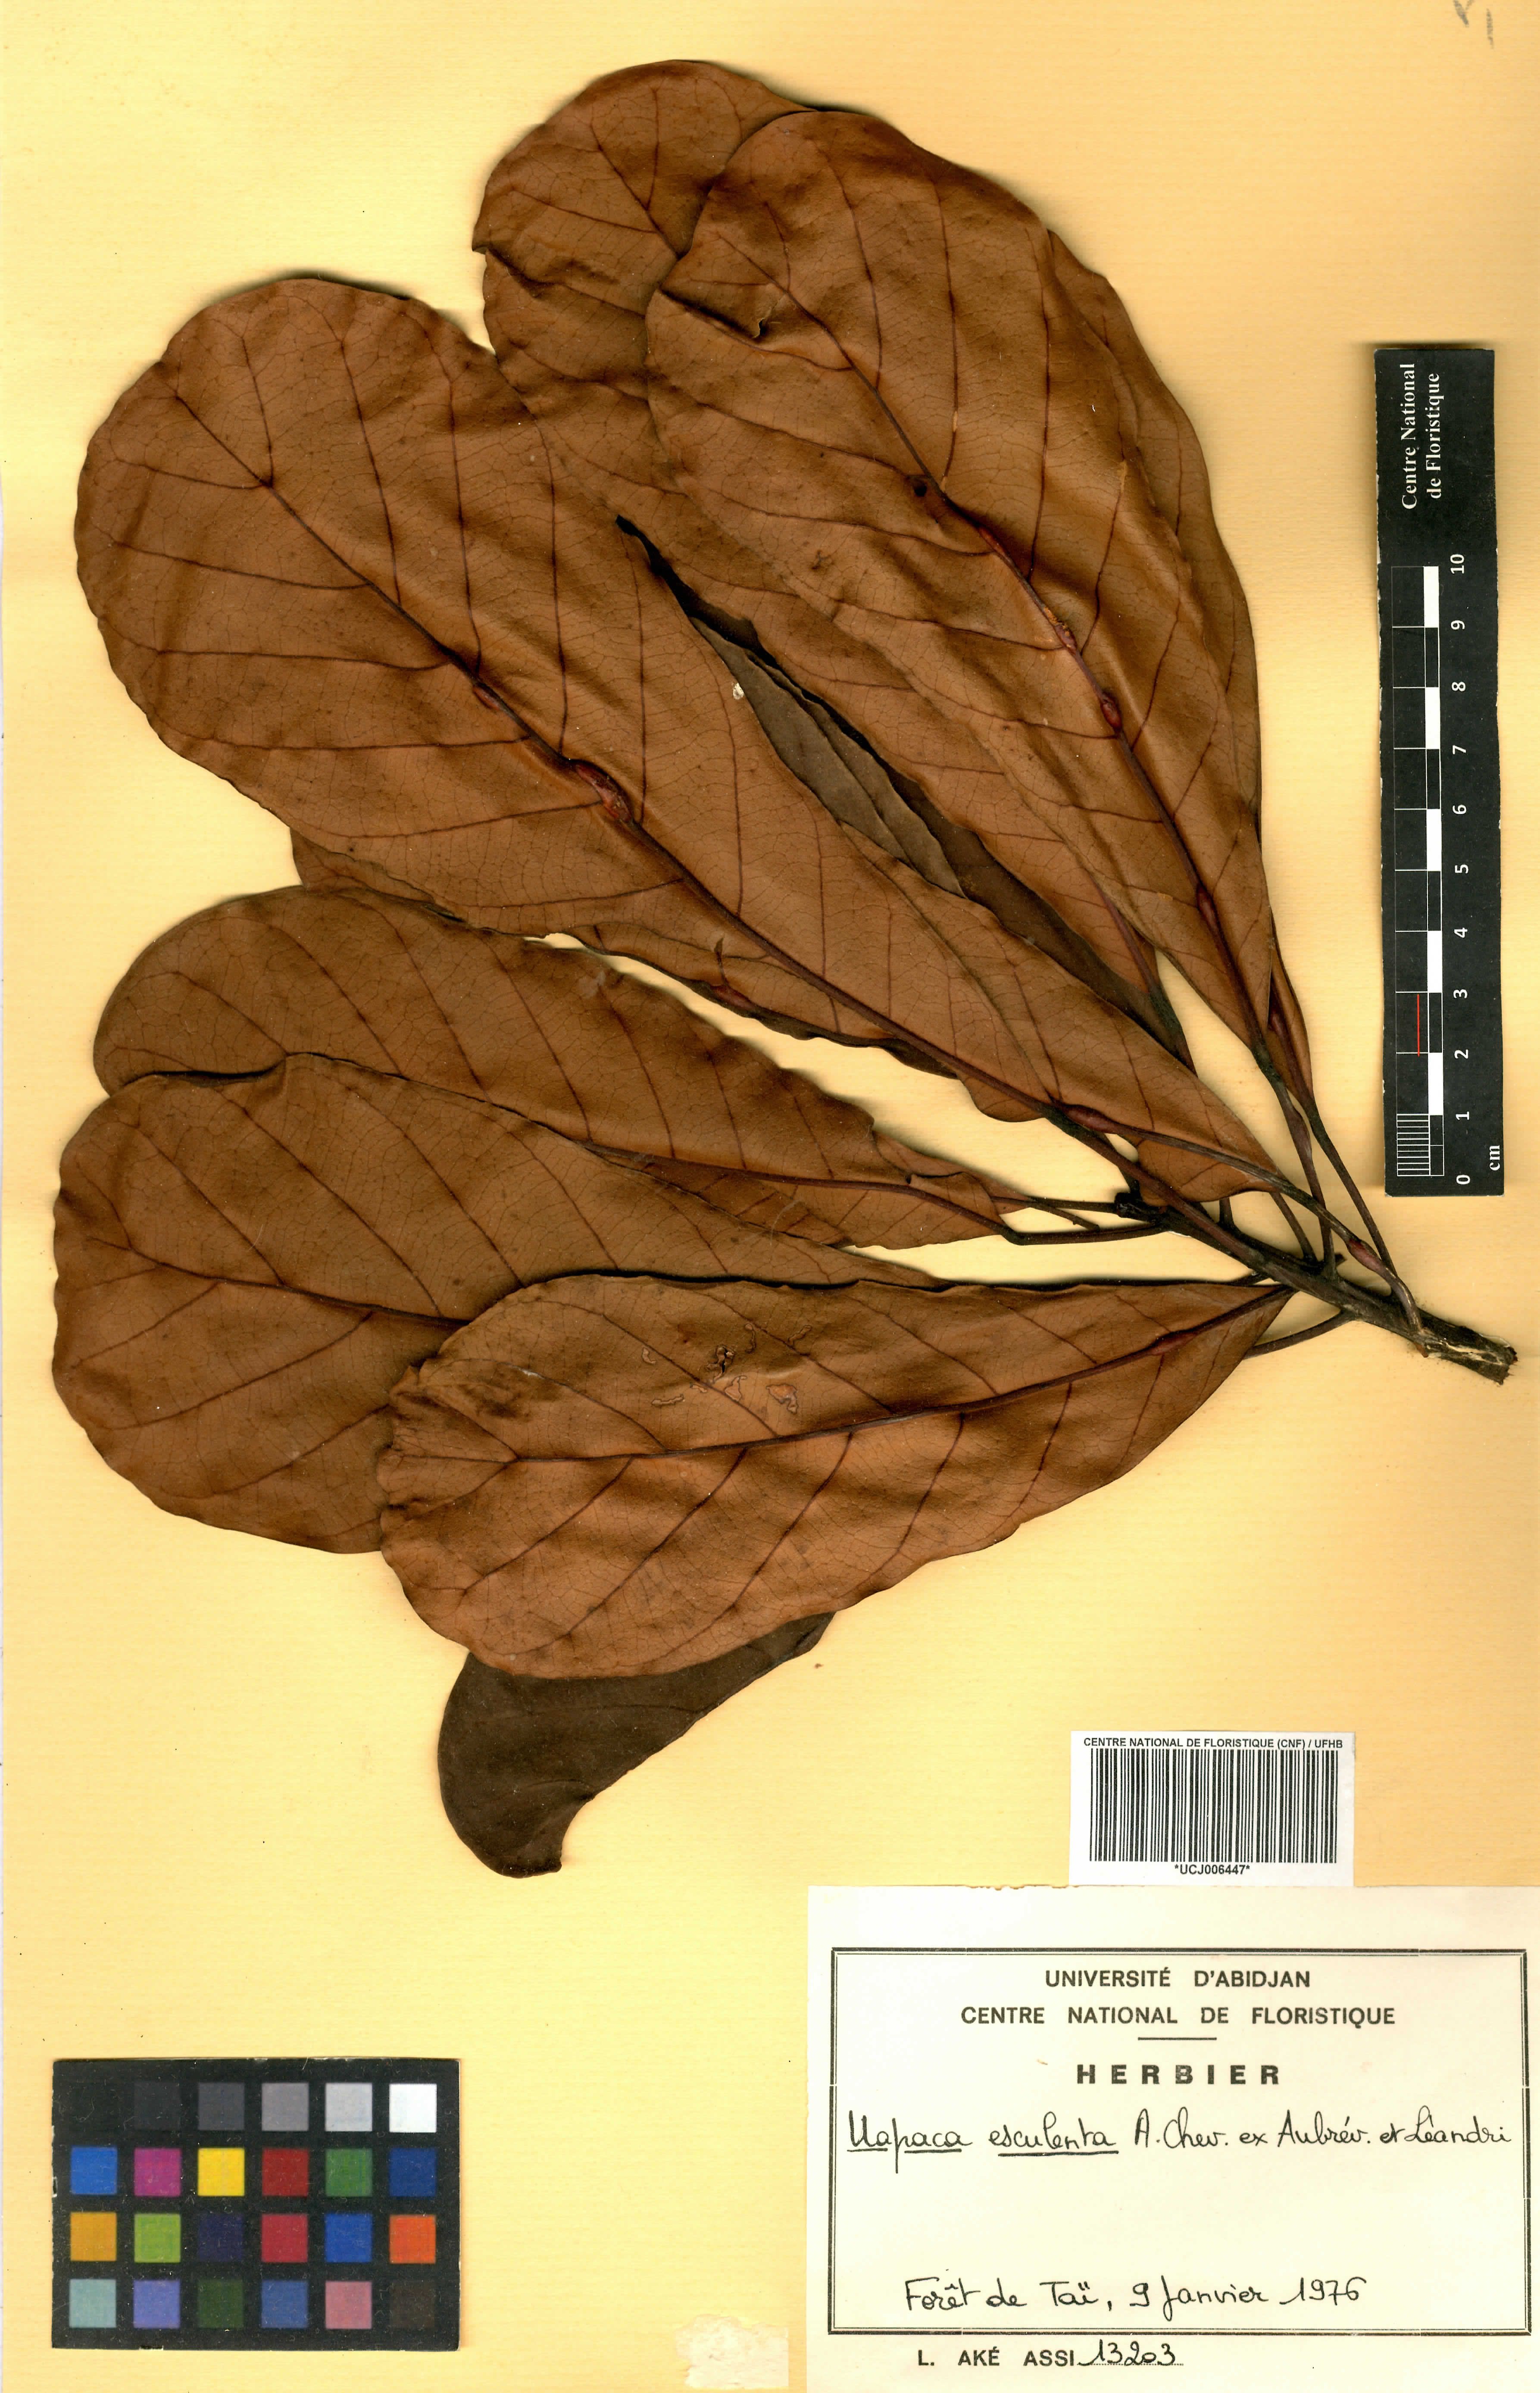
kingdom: Plantae
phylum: Tracheophyta
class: Magnoliopsida
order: Malpighiales
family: Phyllanthaceae
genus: Uapaca
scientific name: Uapaca pynaertii
